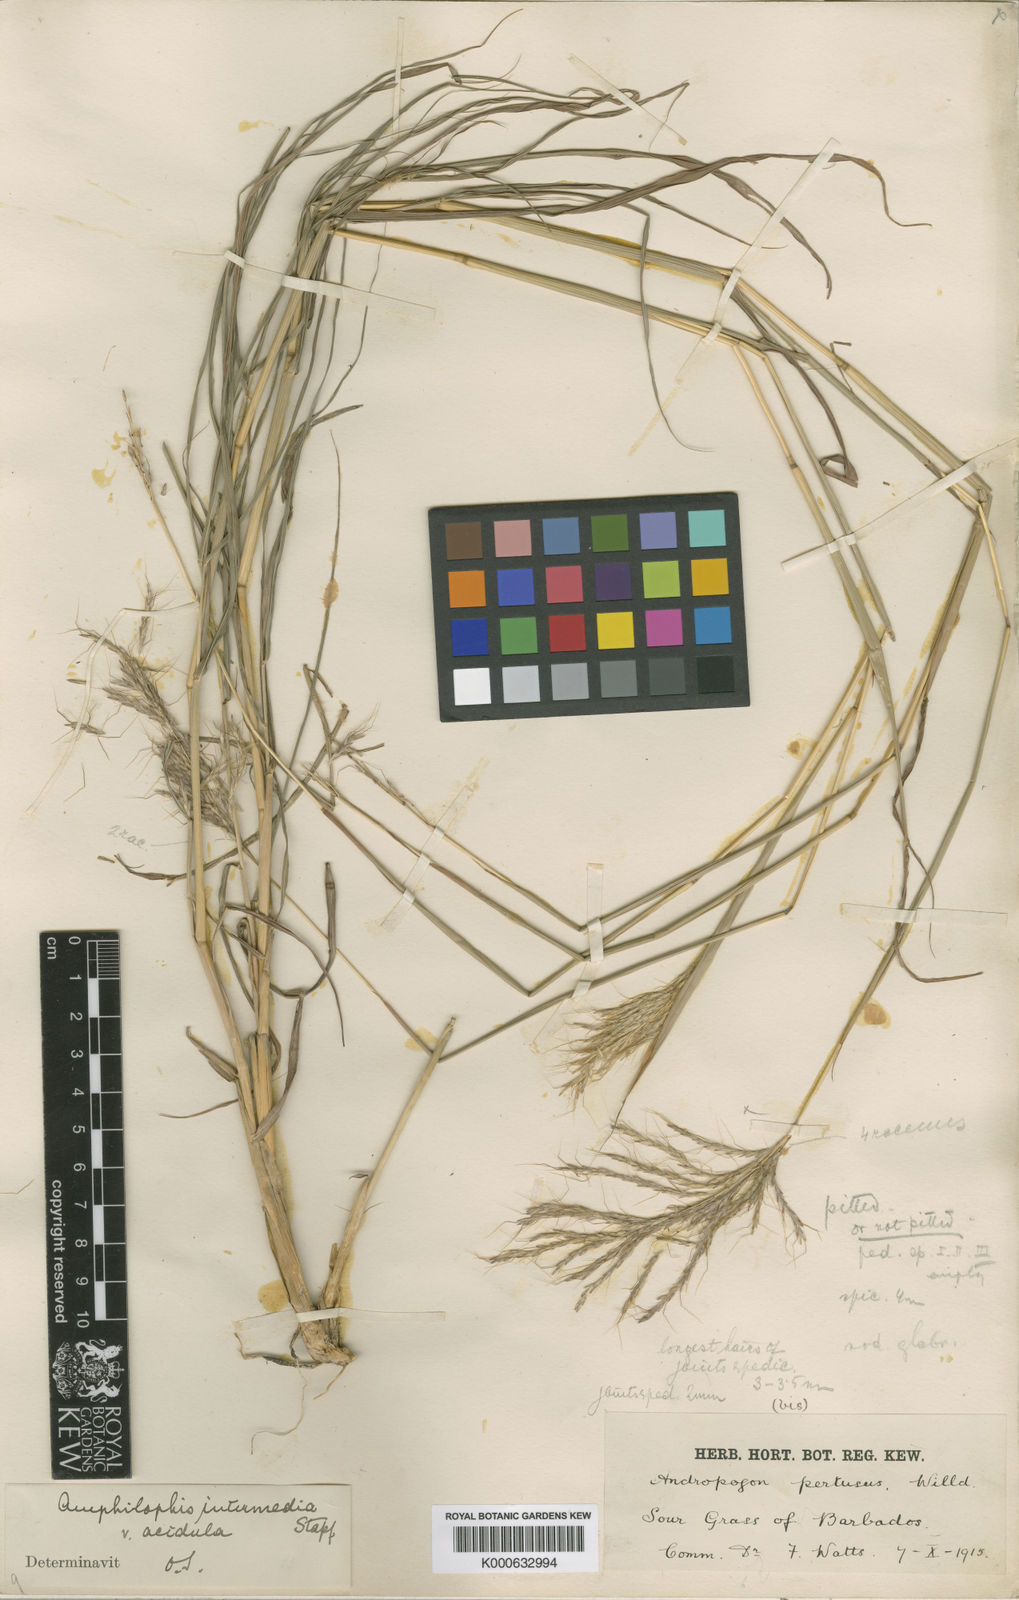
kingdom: Plantae
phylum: Tracheophyta
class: Liliopsida
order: Poales
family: Poaceae
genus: Bothriochloa
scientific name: Bothriochloa bladhii
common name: Caucasian bluestem
